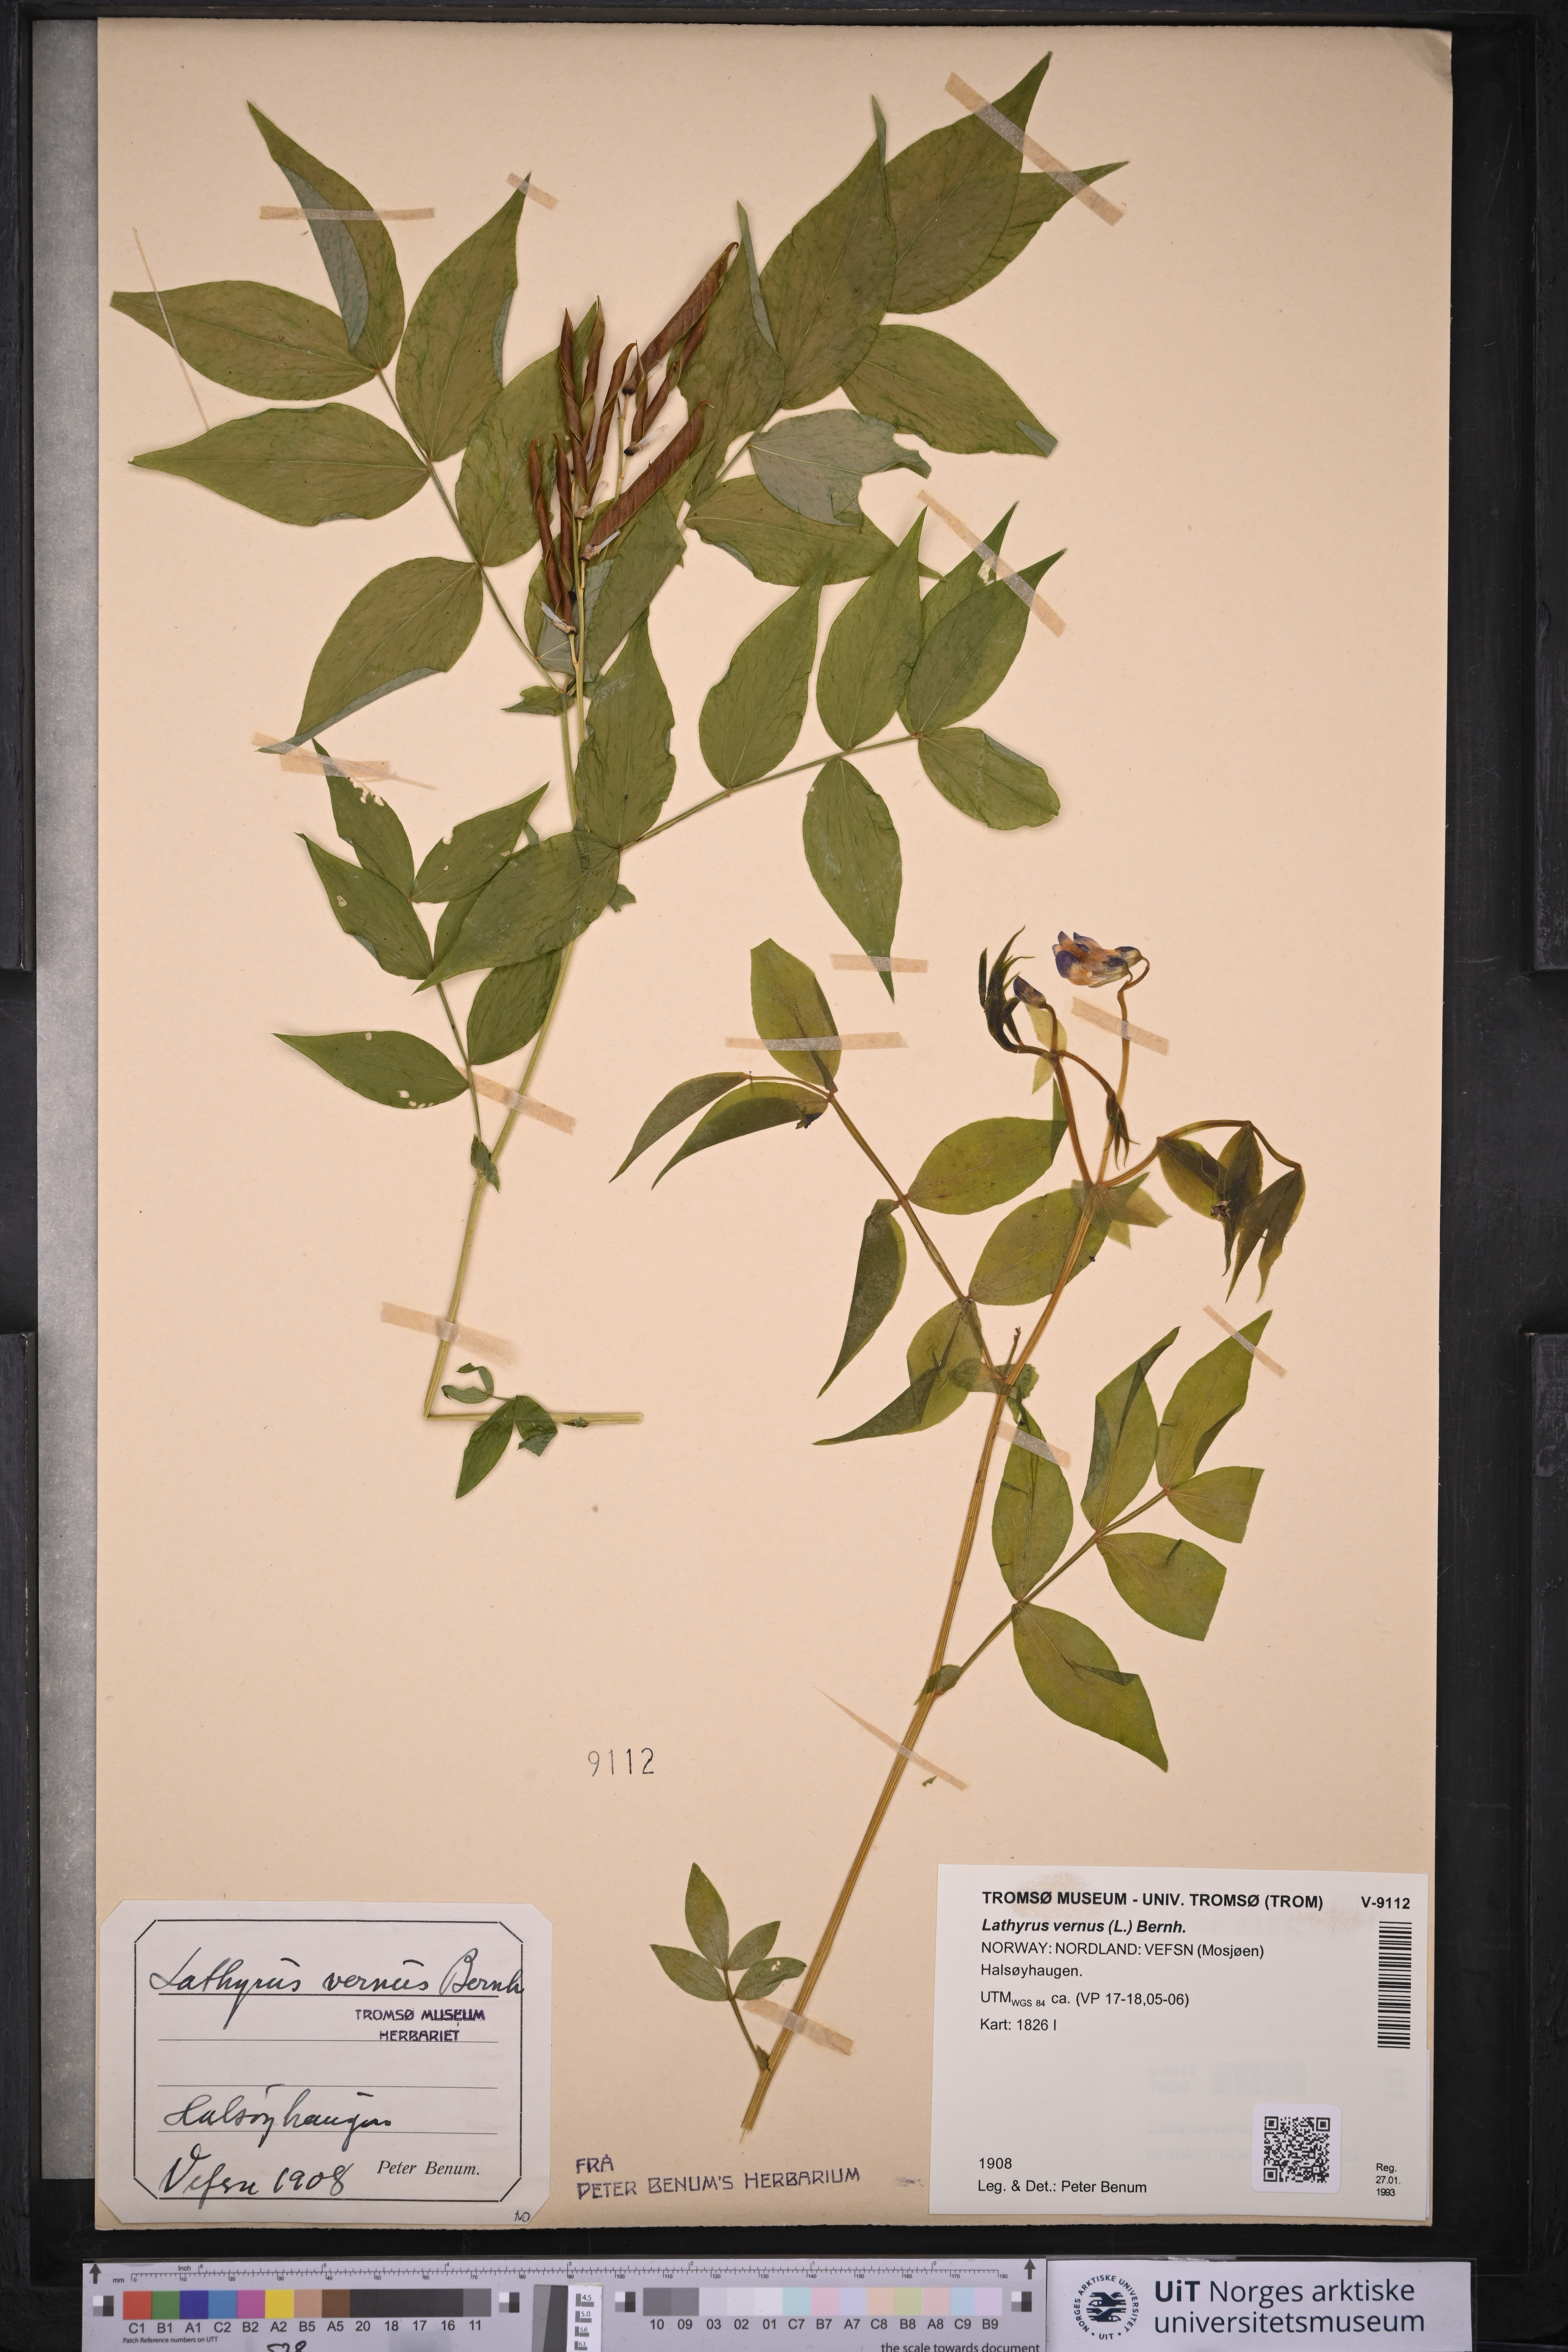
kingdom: Plantae
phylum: Tracheophyta
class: Magnoliopsida
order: Fabales
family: Fabaceae
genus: Lathyrus
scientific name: Lathyrus vernus
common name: Spring pea
